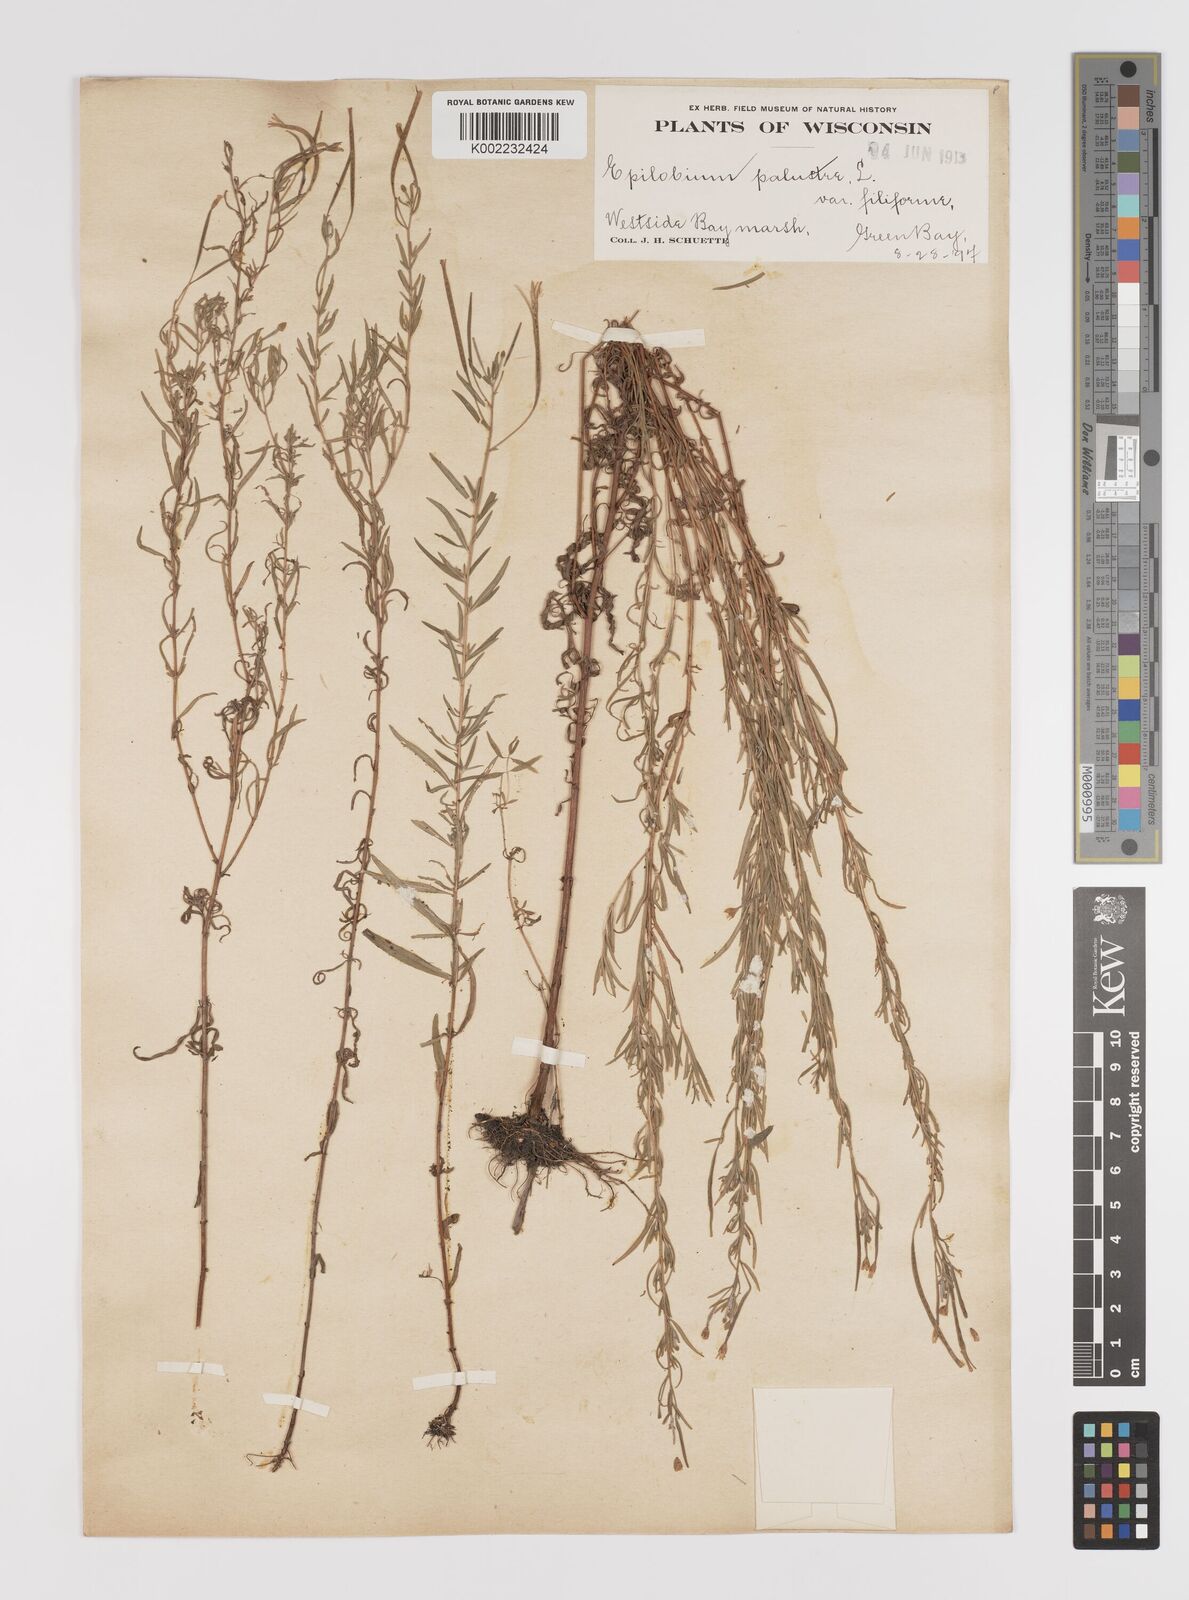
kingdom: Plantae
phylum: Tracheophyta
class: Magnoliopsida
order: Myrtales
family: Onagraceae
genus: Epilobium
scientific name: Epilobium palustre
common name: Marsh willowherb
